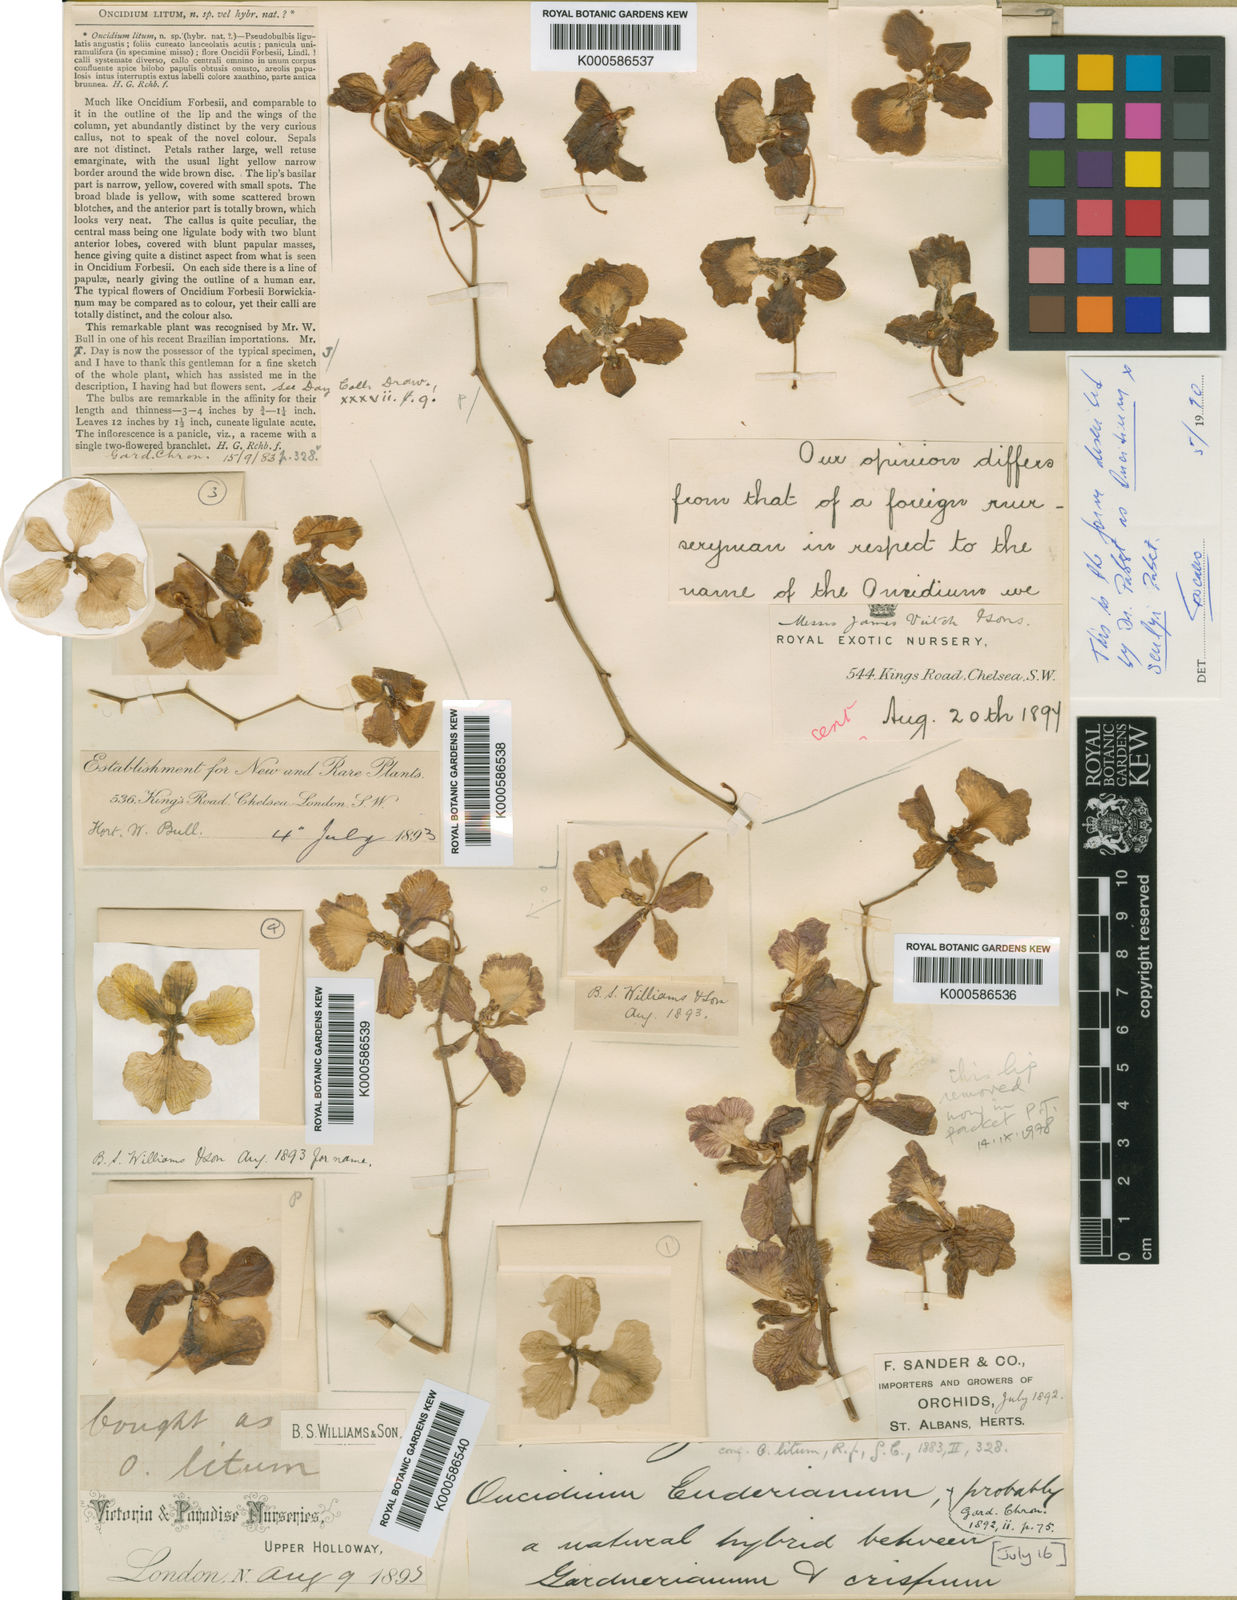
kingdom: Plantae
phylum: Tracheophyta
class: Liliopsida
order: Asparagales
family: Orchidaceae
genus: Gomesa
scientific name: Gomesa scullyi
